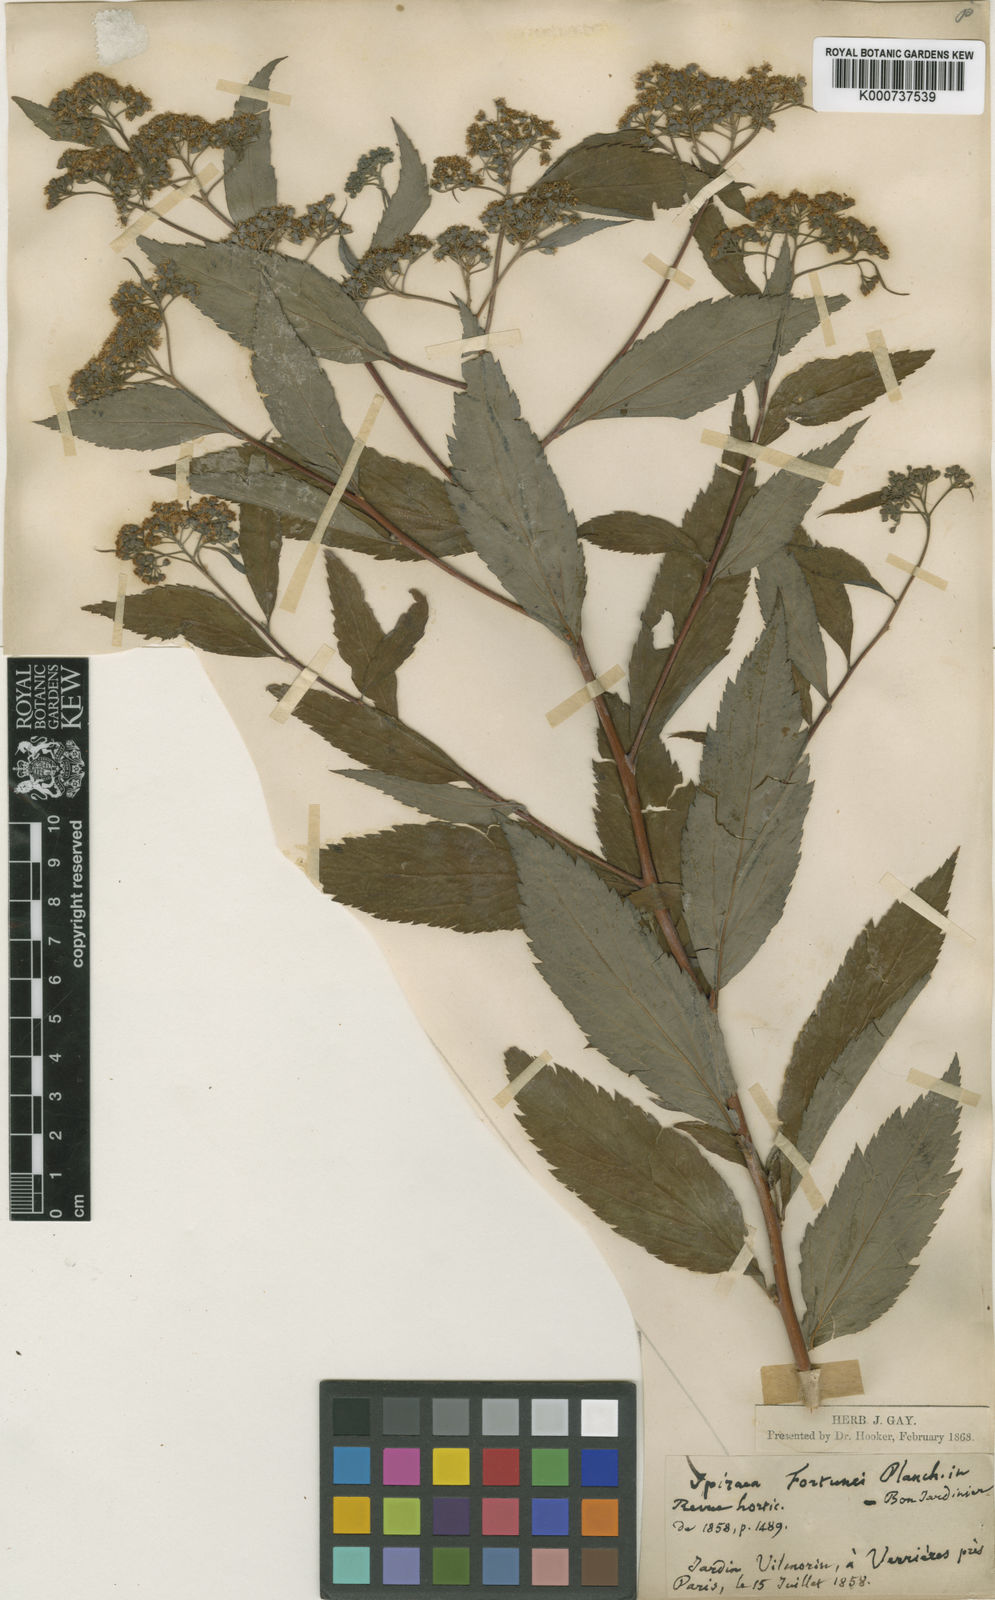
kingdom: Plantae
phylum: Tracheophyta
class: Magnoliopsida
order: Rosales
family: Rosaceae
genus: Spiraea
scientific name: Spiraea
